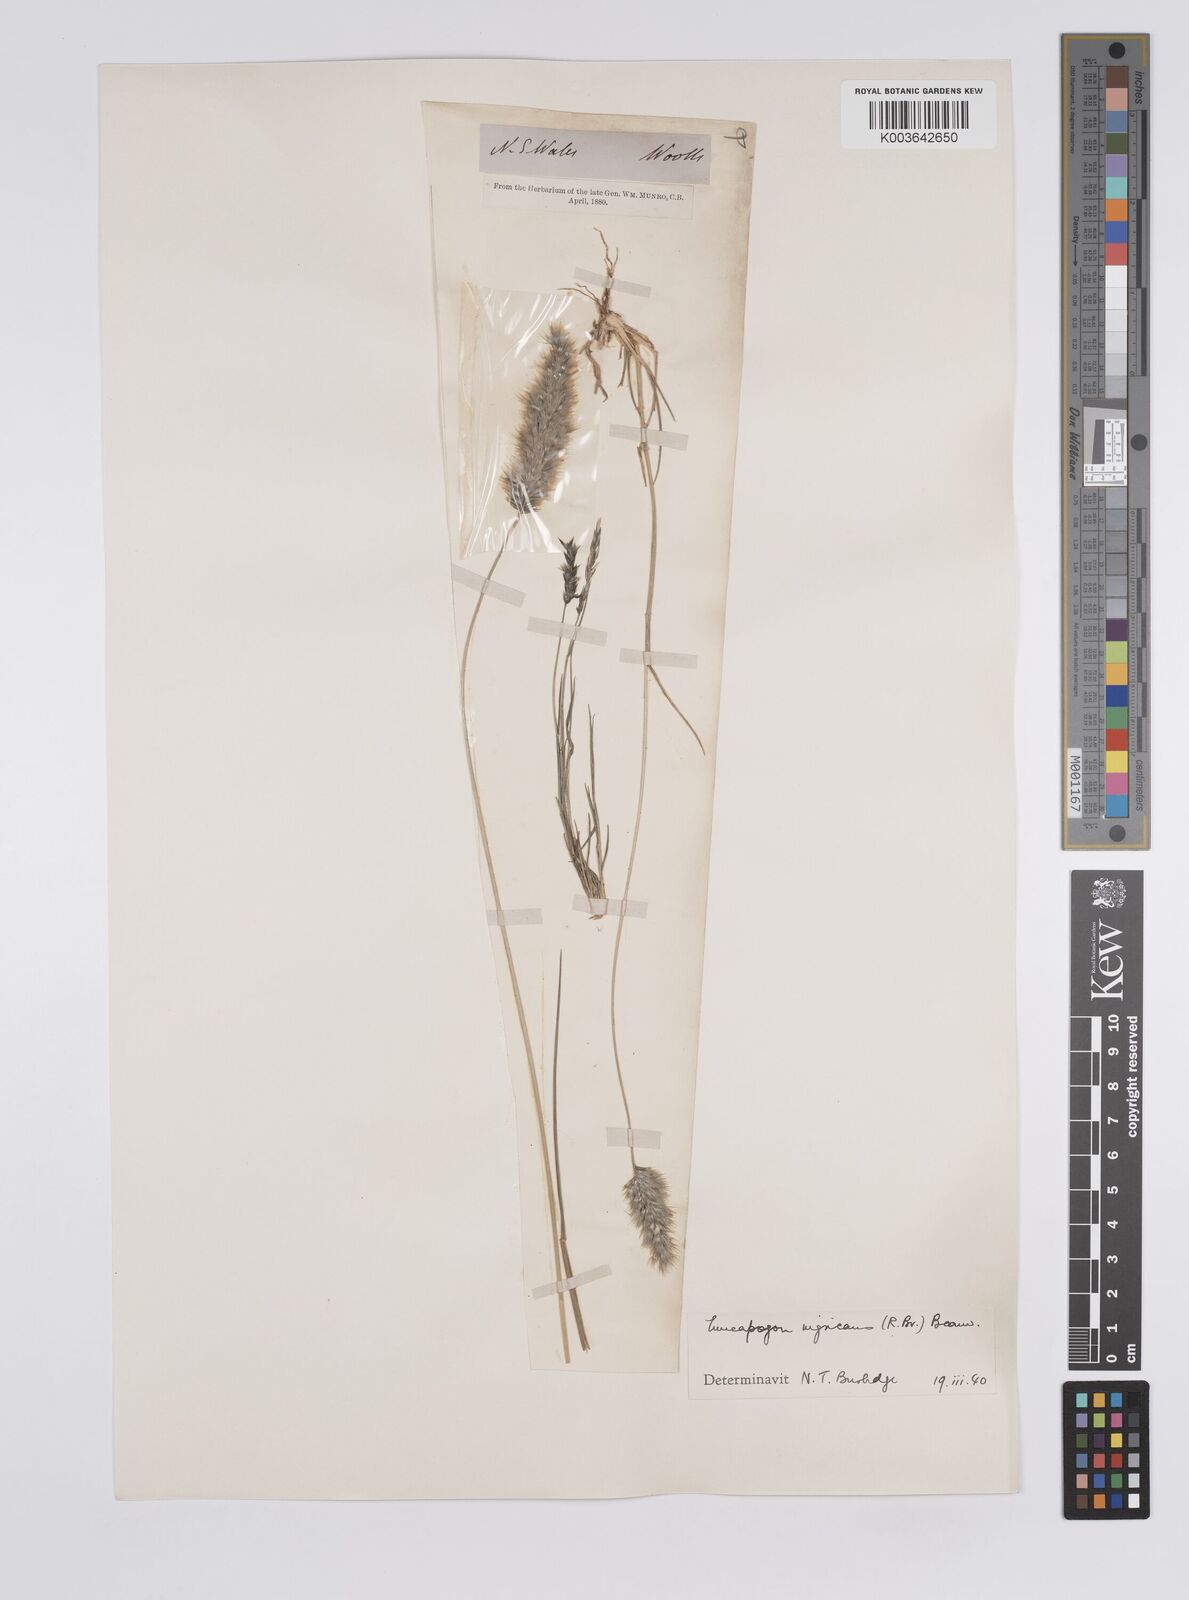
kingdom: Plantae
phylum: Tracheophyta
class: Liliopsida
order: Poales
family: Poaceae
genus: Enneapogon
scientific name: Enneapogon nigricans
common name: Pappus grass
